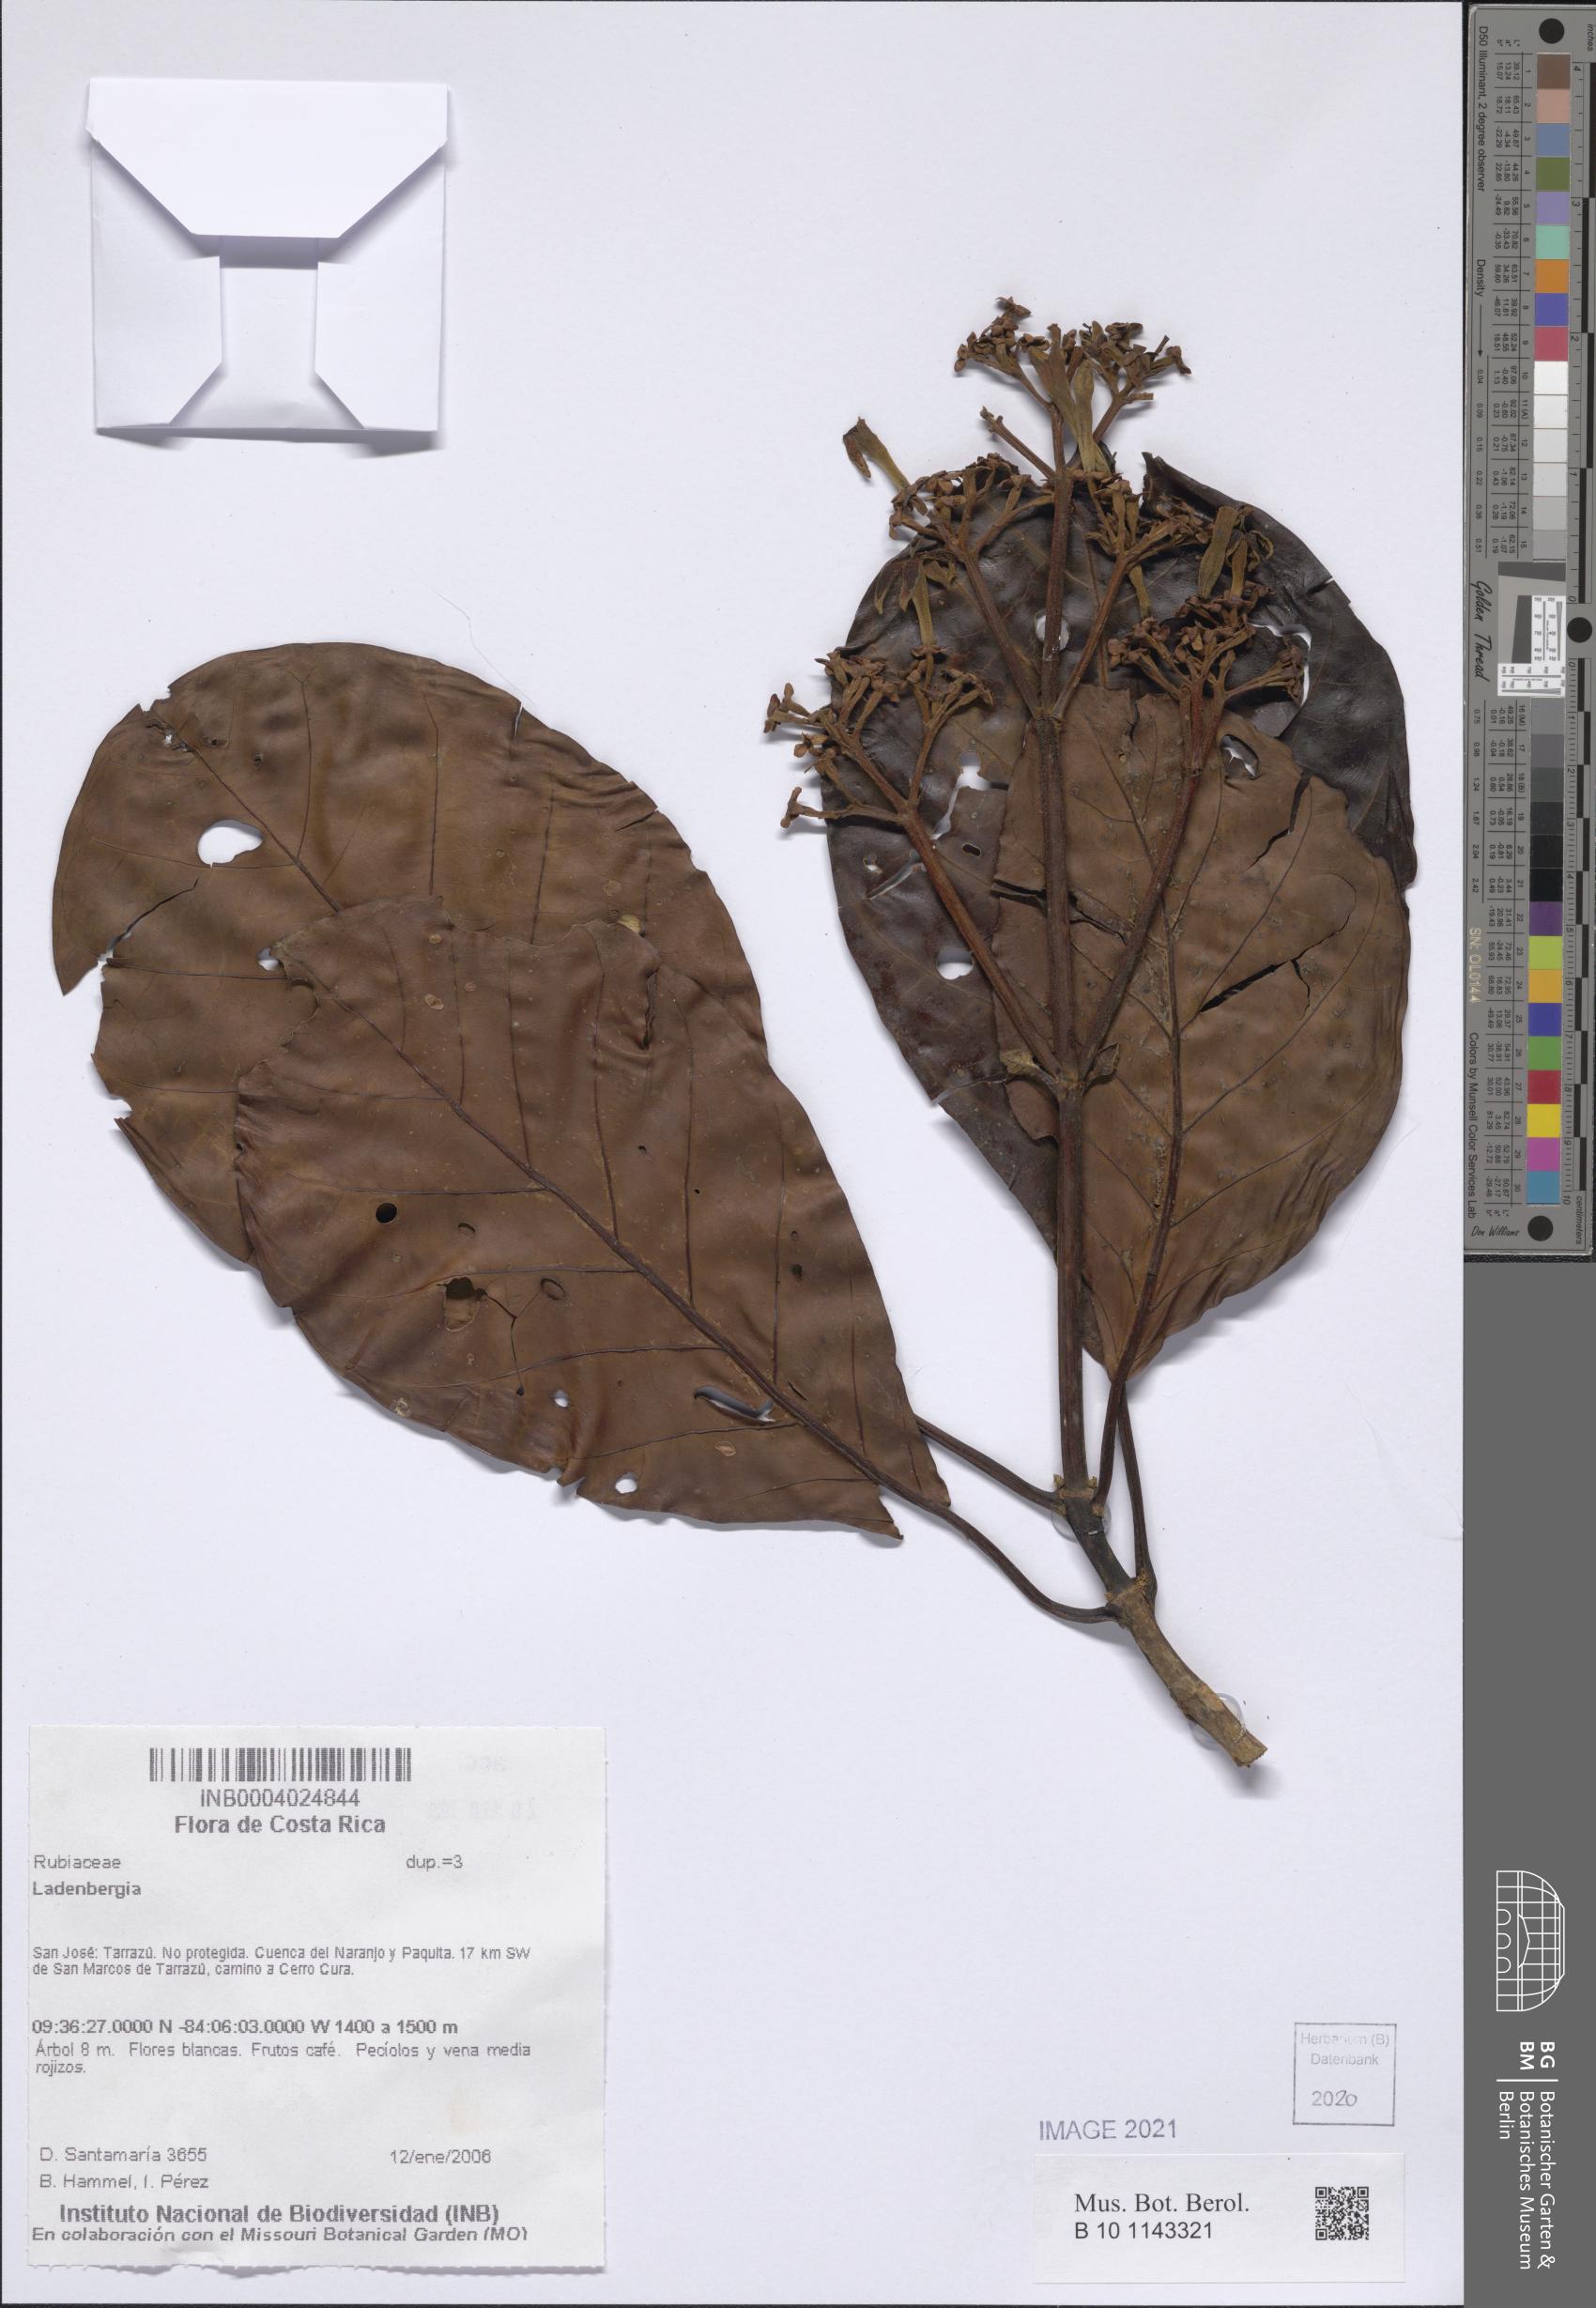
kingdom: Plantae
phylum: Tracheophyta
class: Magnoliopsida
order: Gentianales
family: Rubiaceae
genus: Ladenbergia
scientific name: Ladenbergia
